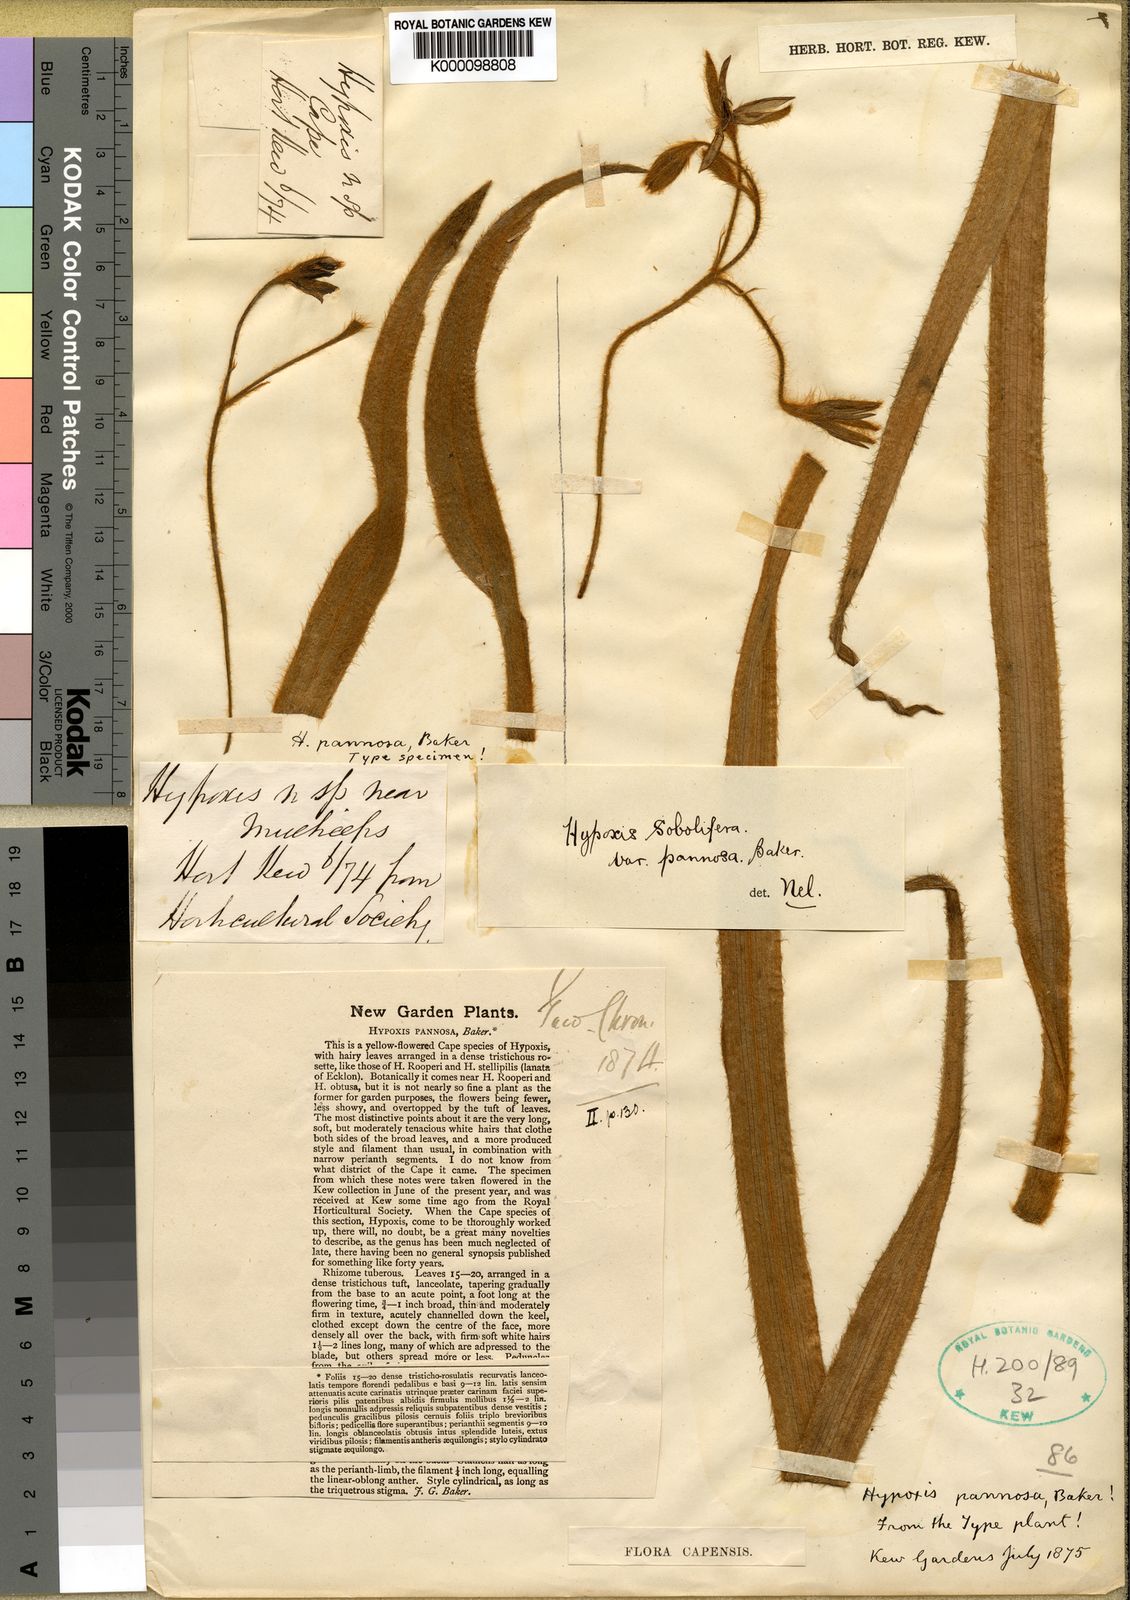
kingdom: Plantae
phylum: Tracheophyta
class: Liliopsida
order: Asparagales
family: Hypoxidaceae
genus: Hypoxis
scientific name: Hypoxis
